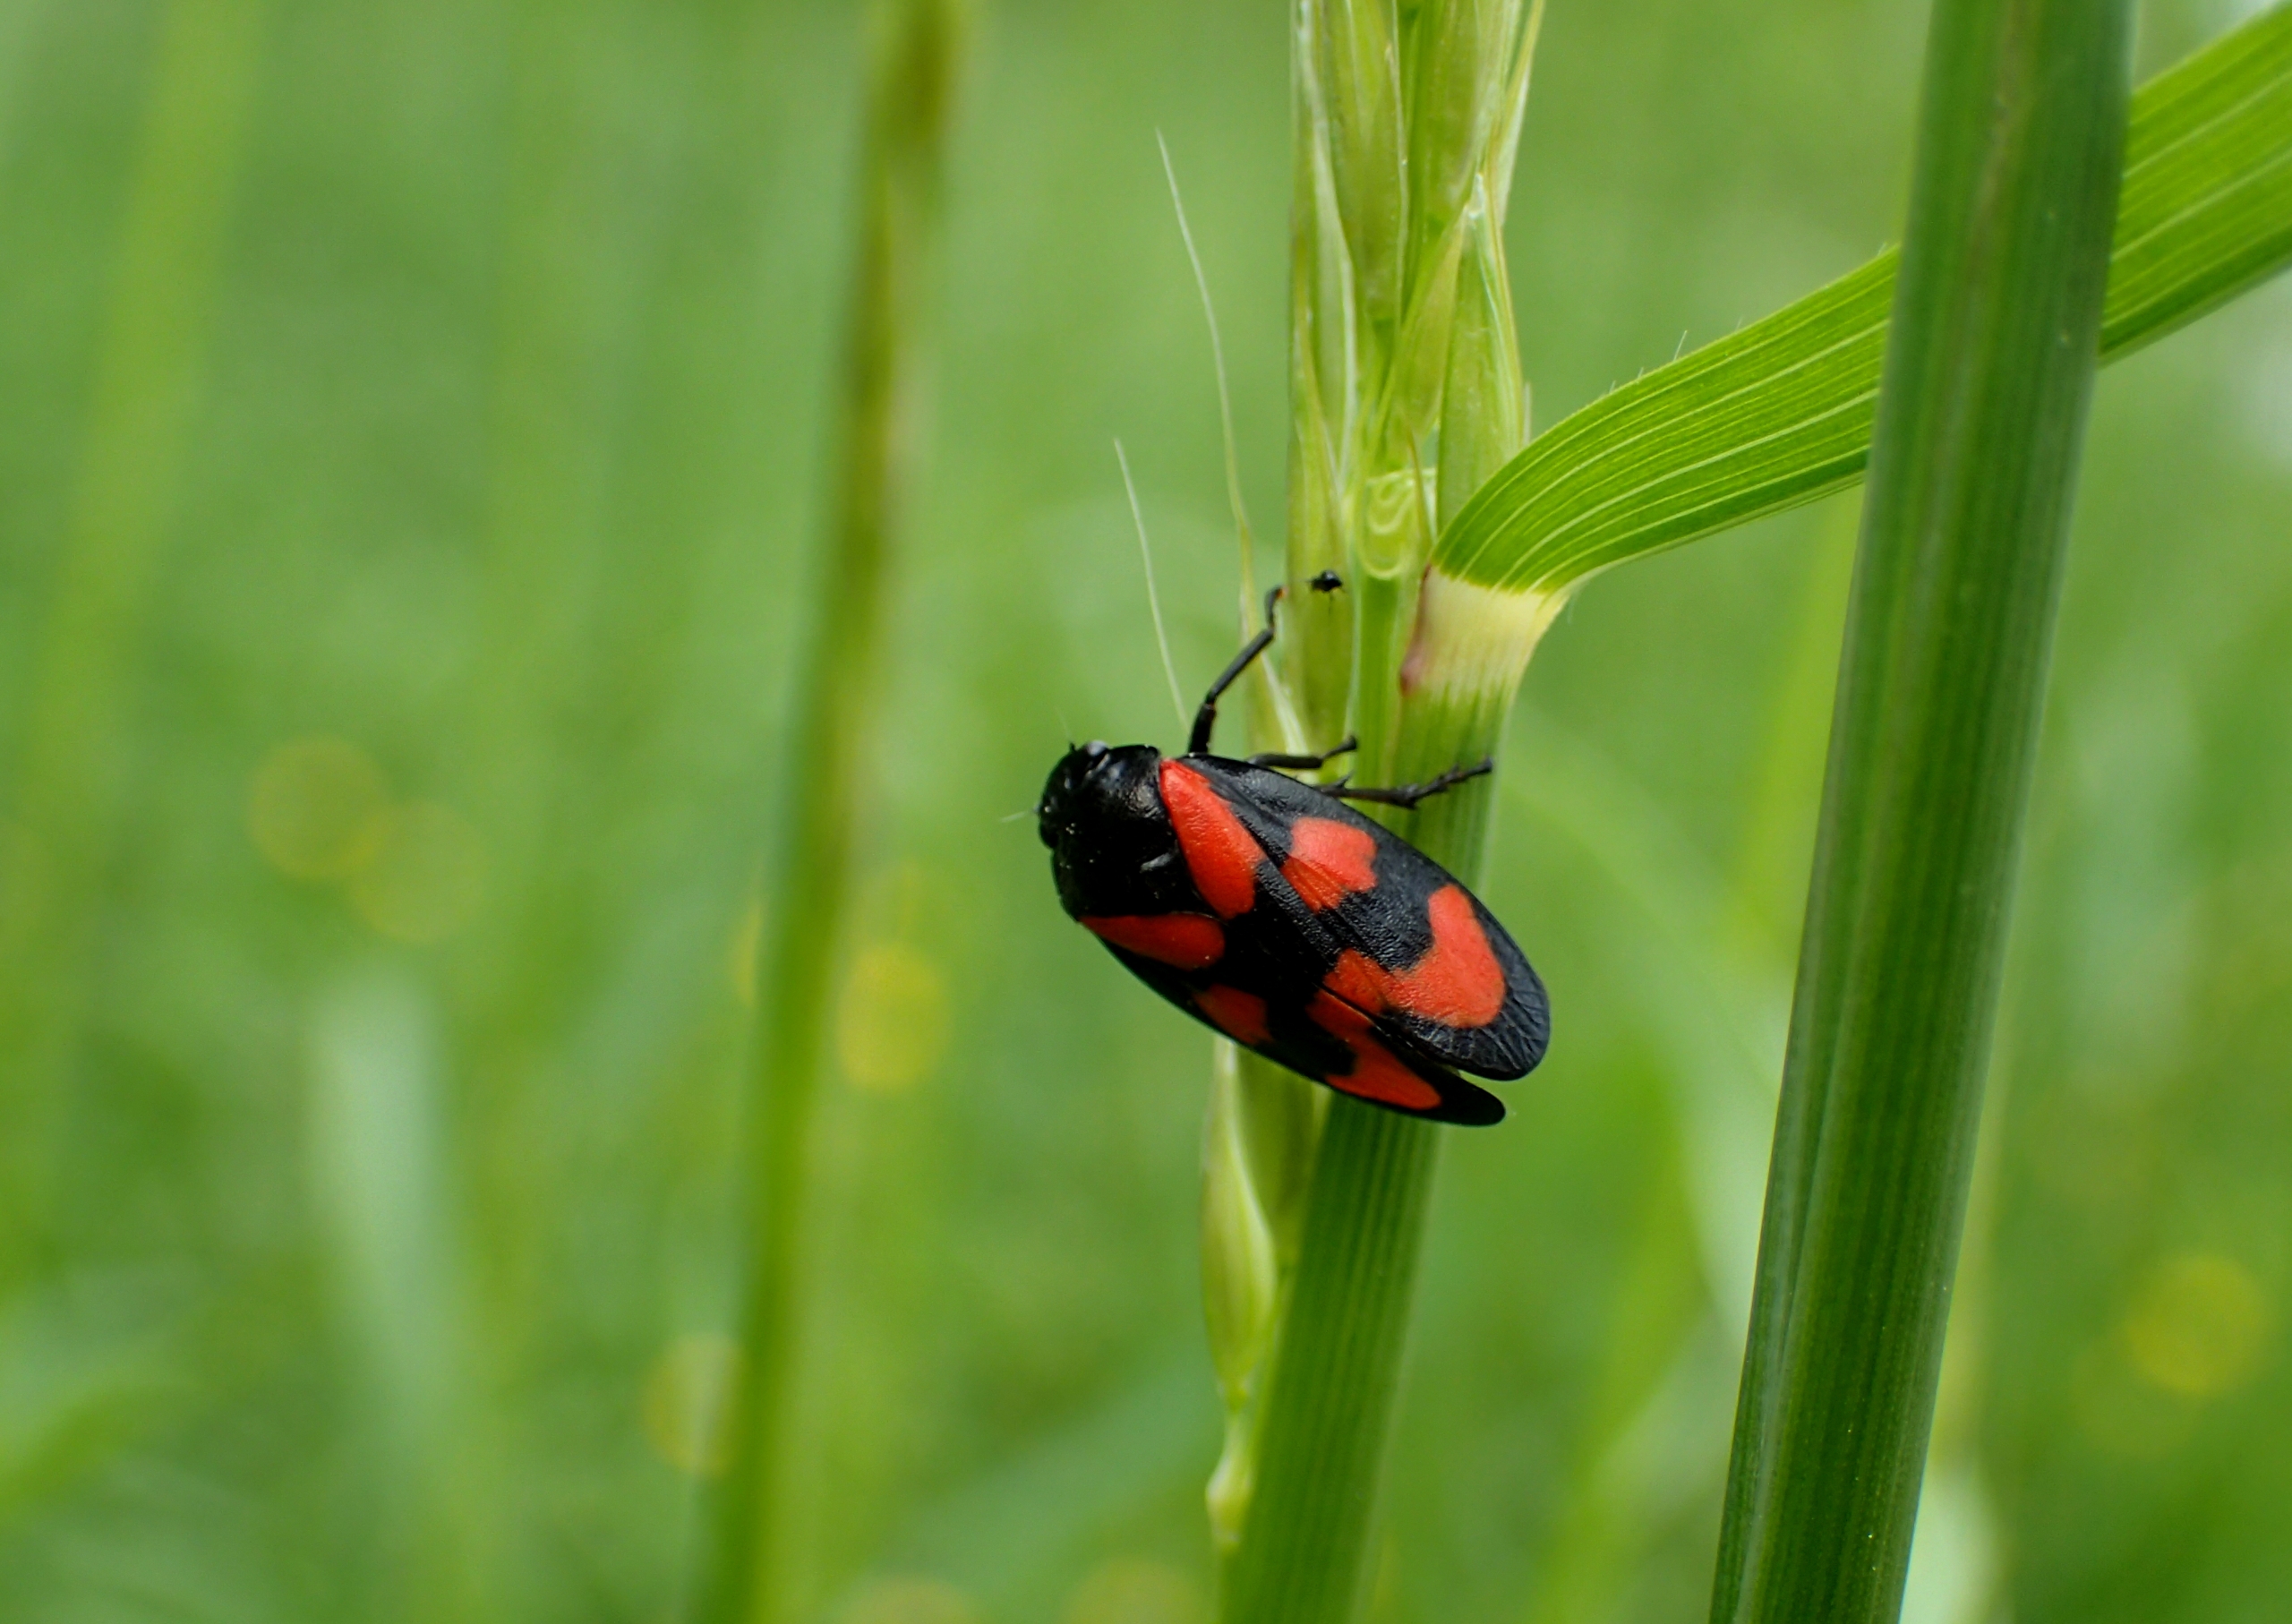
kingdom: Animalia
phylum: Arthropoda
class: Insecta
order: Hemiptera
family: Cercopidae
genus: Cercopis
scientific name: Cercopis vulnerata
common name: Blodcikade
